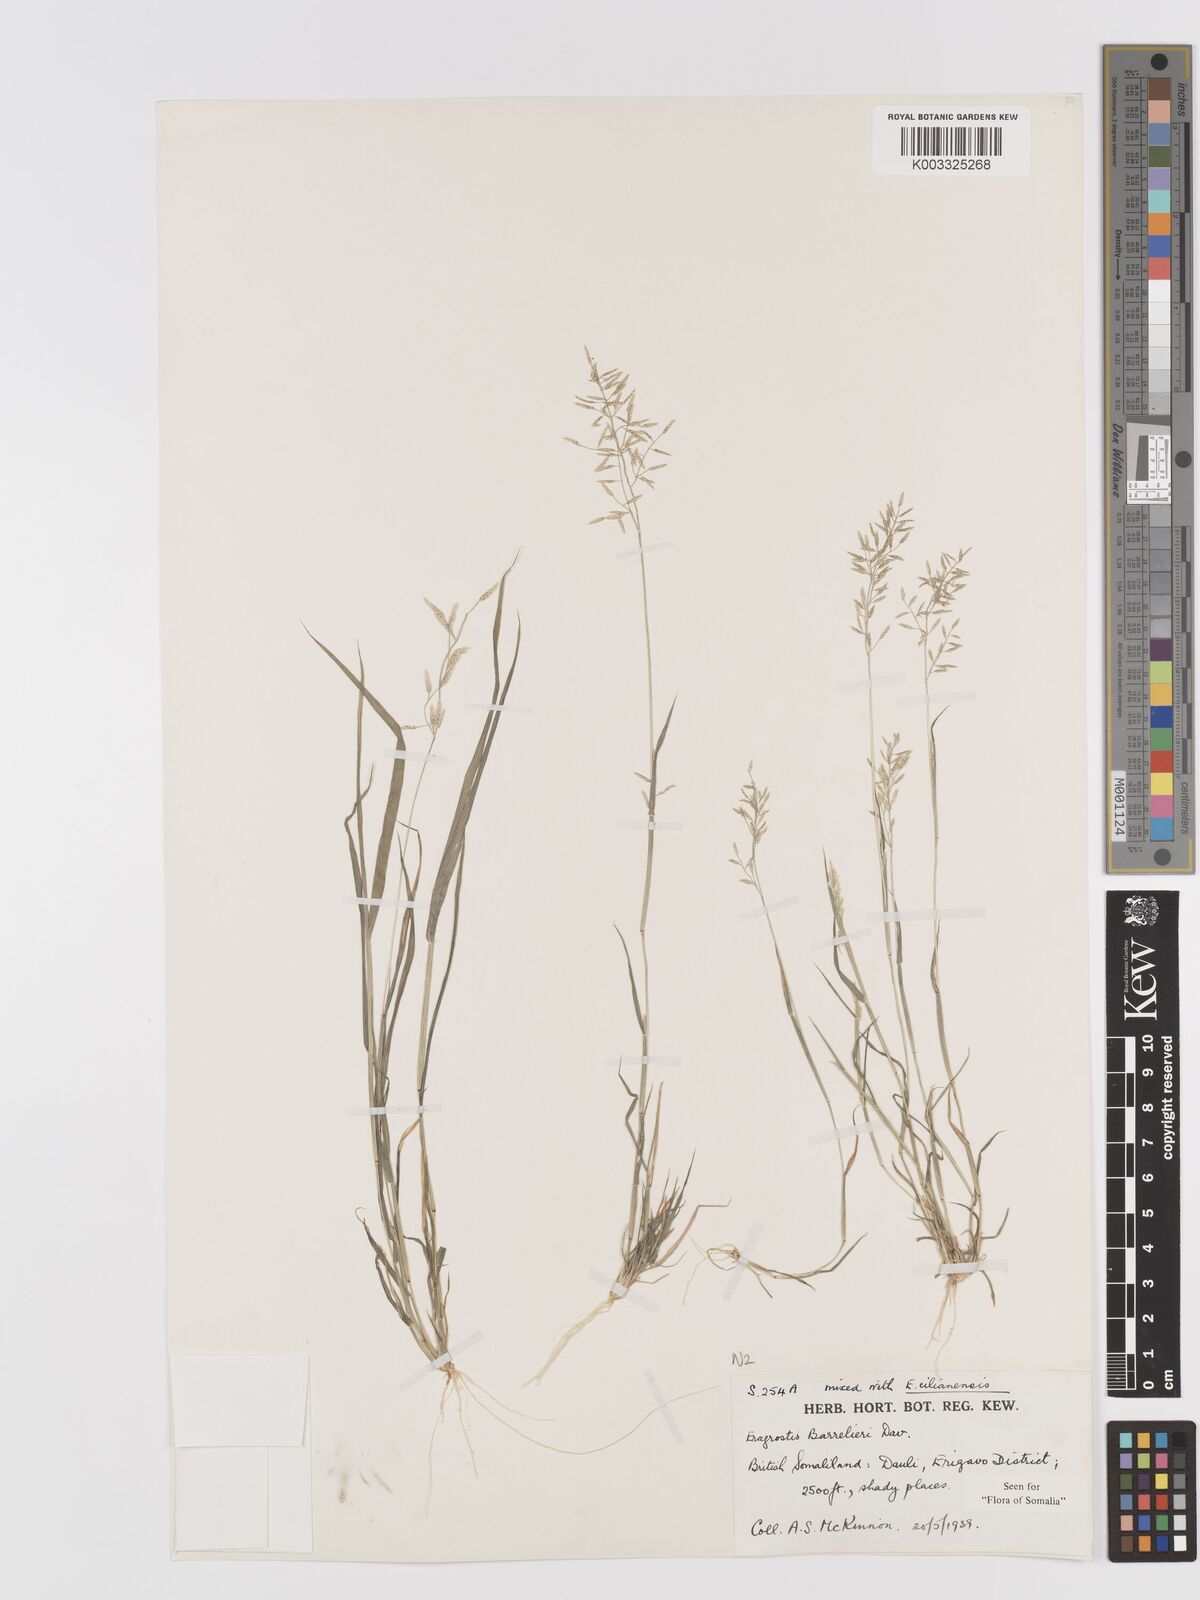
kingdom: Plantae
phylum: Tracheophyta
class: Liliopsida
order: Poales
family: Poaceae
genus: Eragrostis
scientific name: Eragrostis barrelieri
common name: Mediterranean lovegrass
